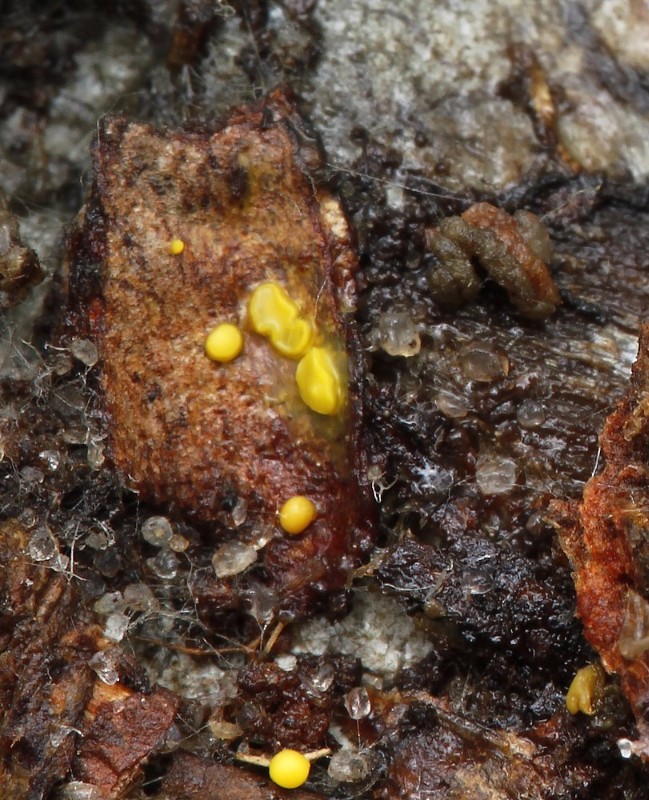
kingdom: Fungi
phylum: Ascomycota
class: Leotiomycetes
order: Helotiales
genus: Lemalis
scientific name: Lemalis aurea
